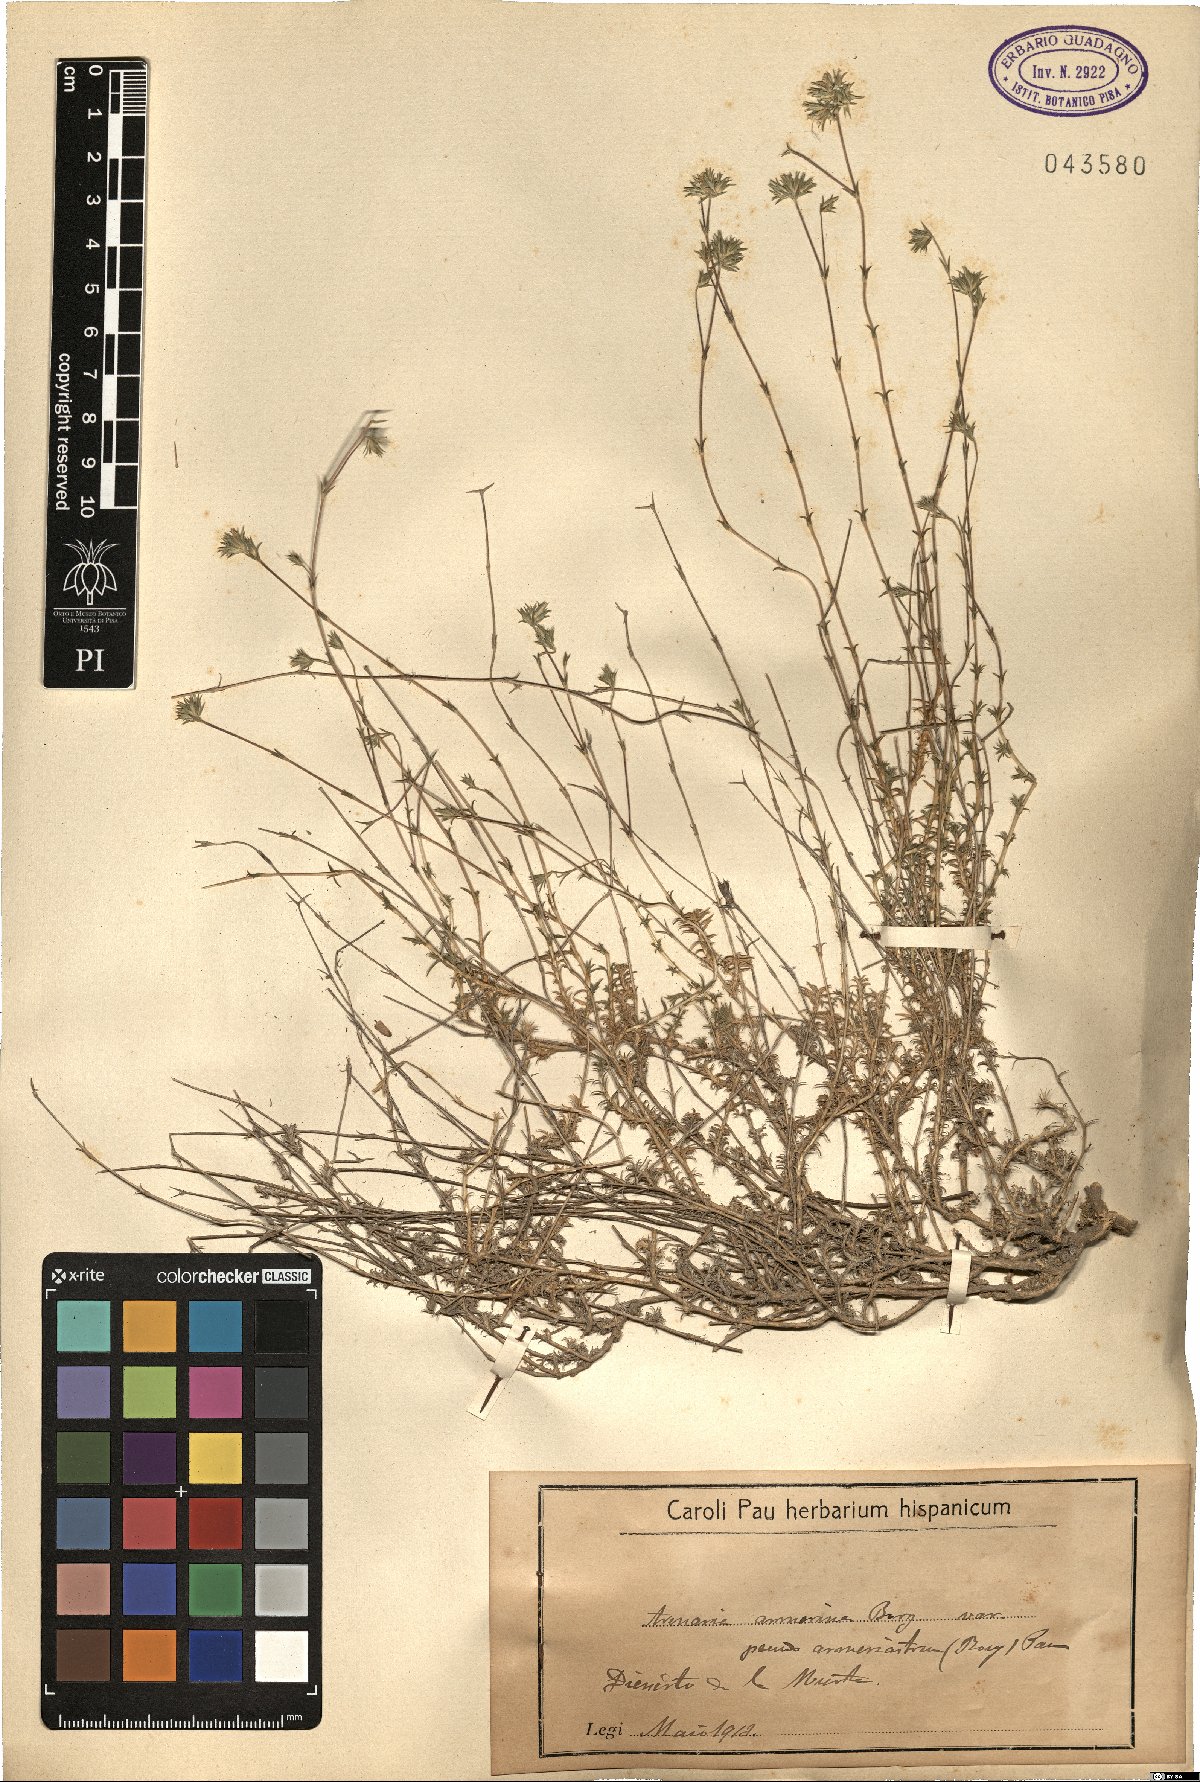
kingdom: Plantae
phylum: Tracheophyta
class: Magnoliopsida
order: Caryophyllales
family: Caryophyllaceae
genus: Arenaria
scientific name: Arenaria aggregata
